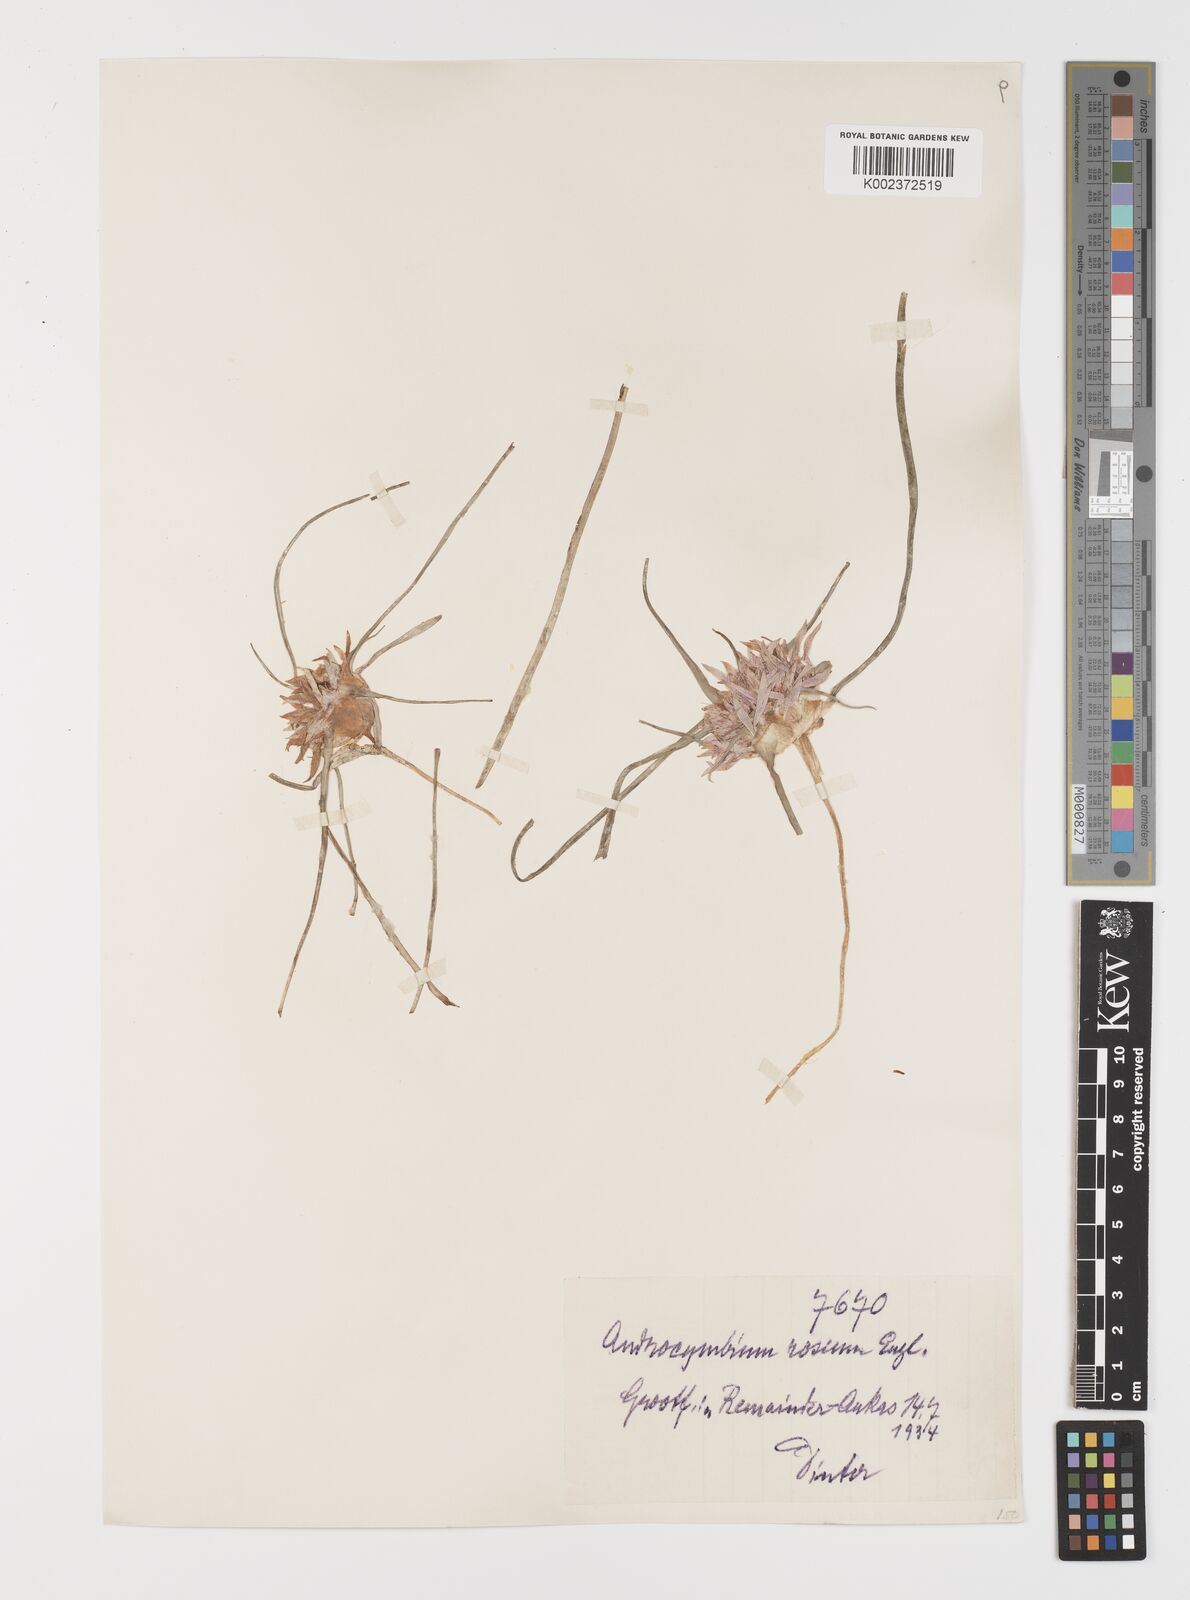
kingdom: Plantae
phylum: Tracheophyta
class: Liliopsida
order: Liliales
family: Colchicaceae
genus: Colchicum
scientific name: Colchicum roseum
